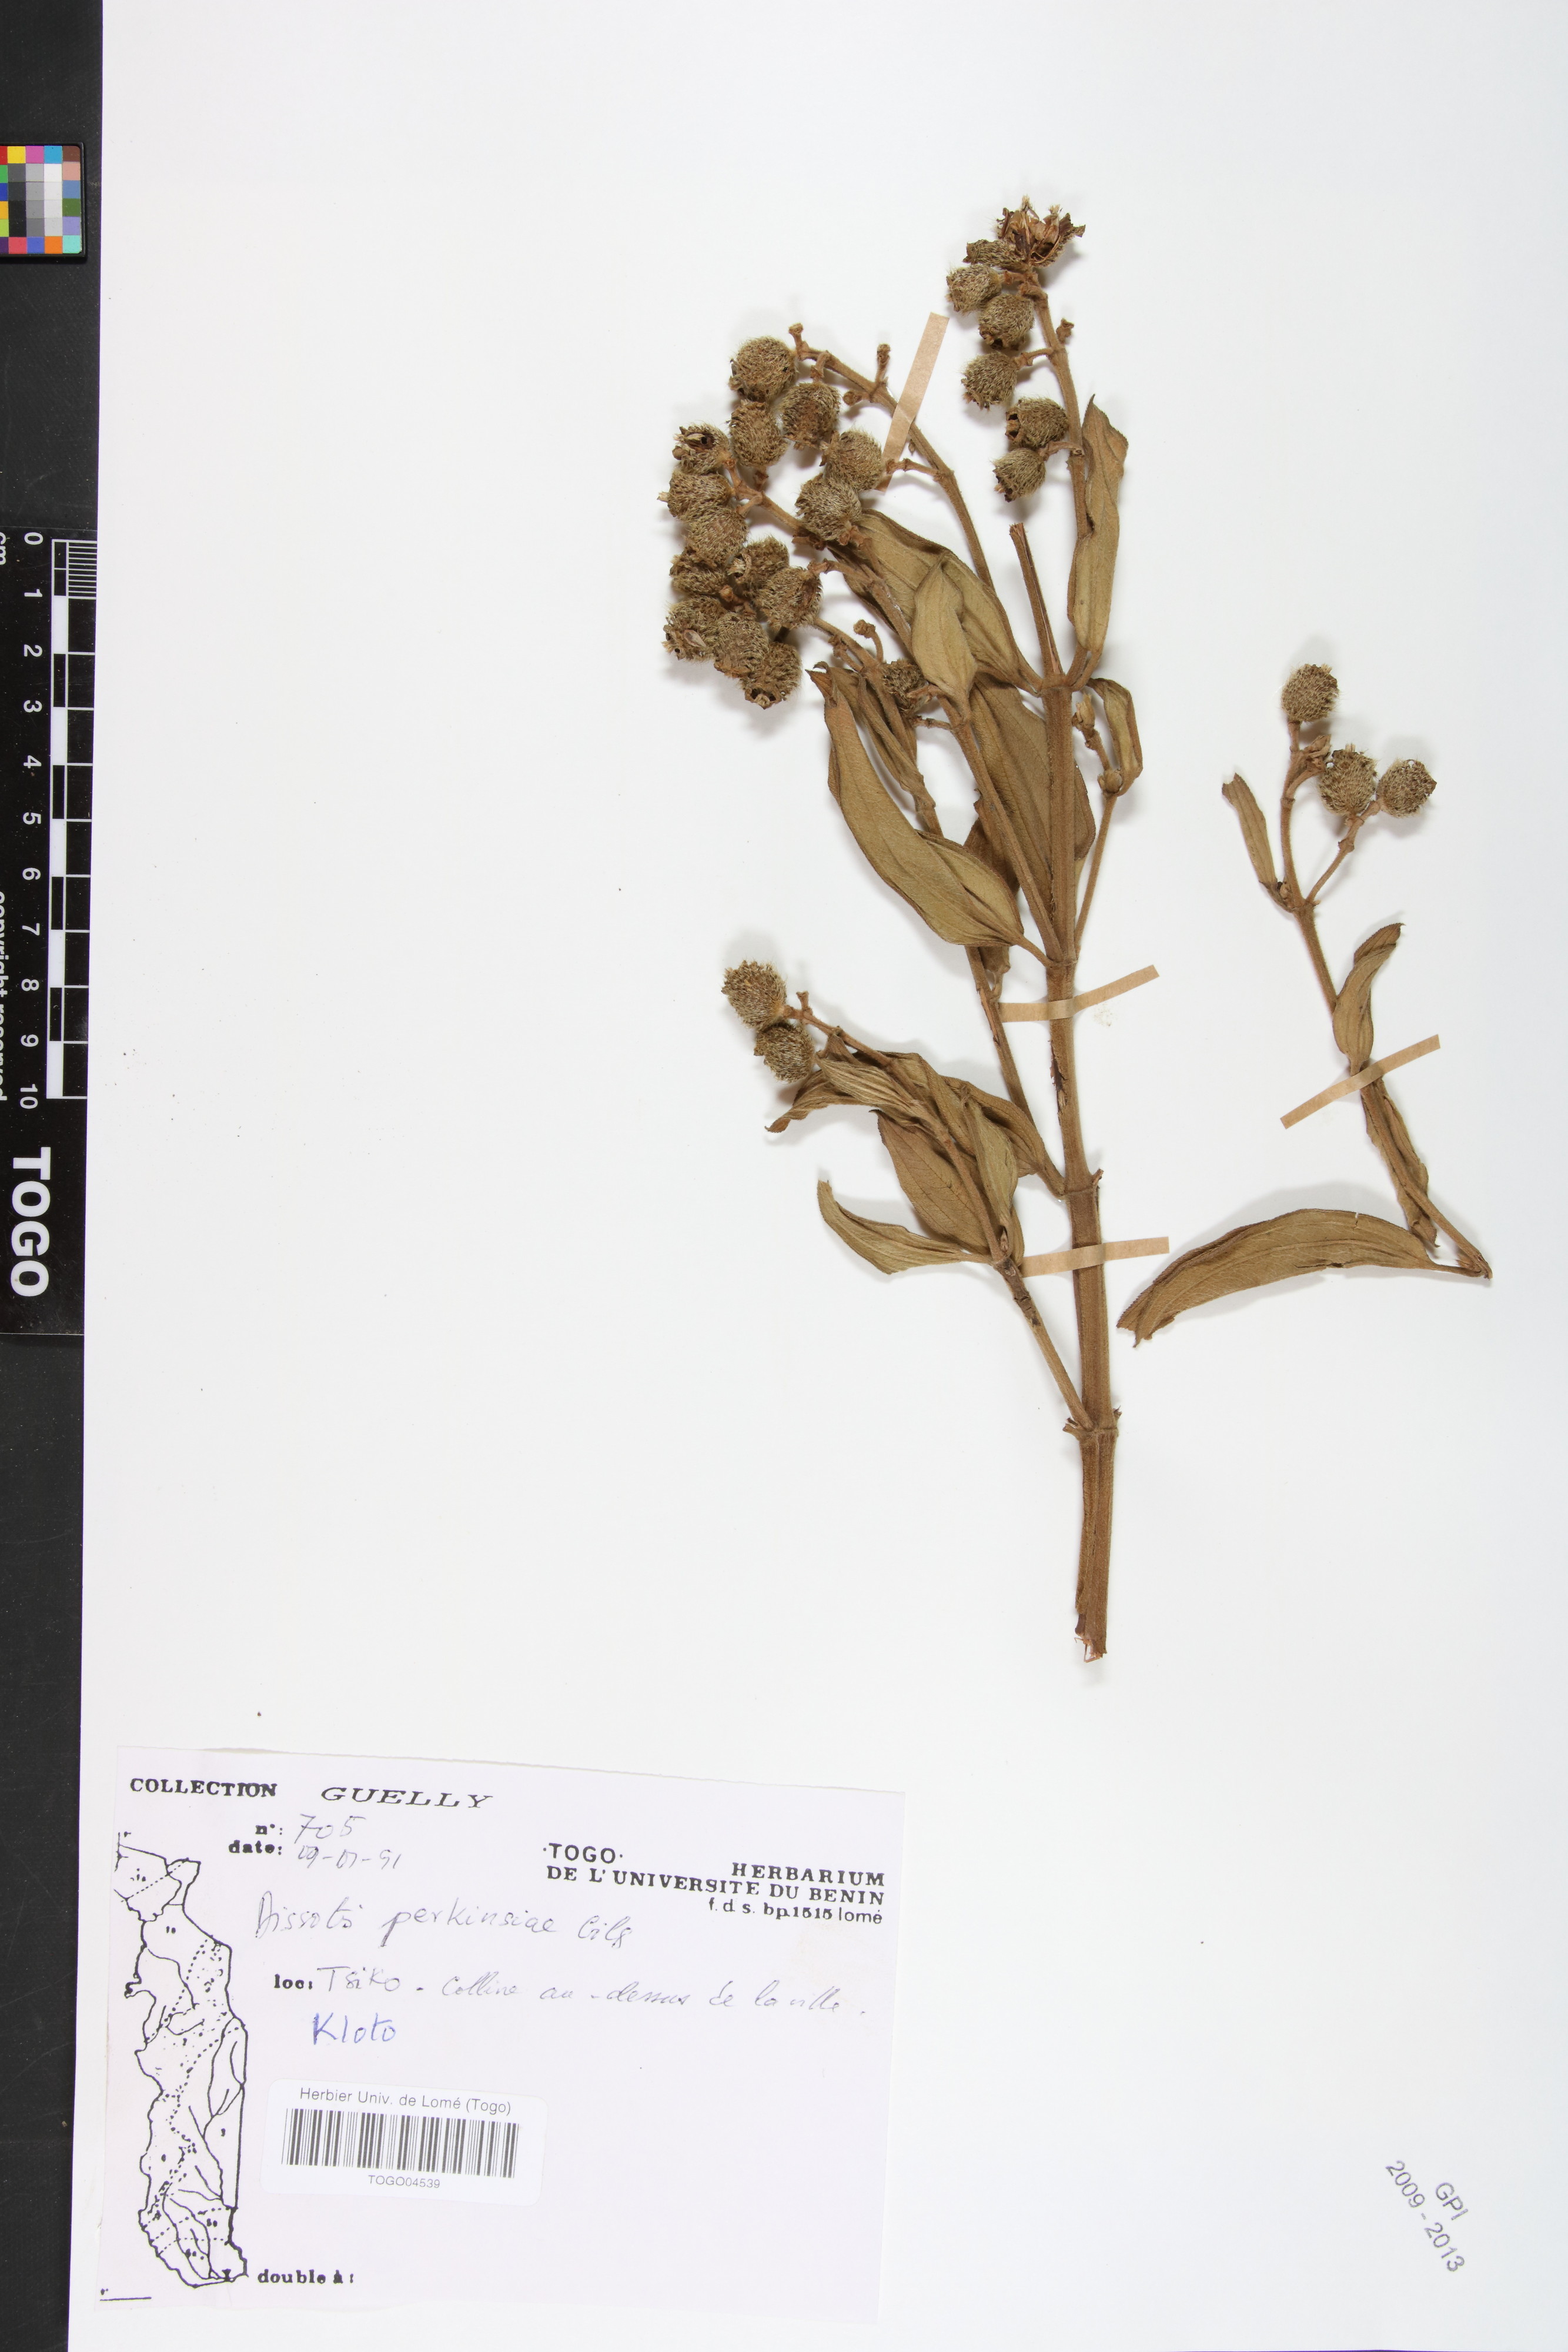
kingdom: Plantae
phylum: Tracheophyta
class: Magnoliopsida
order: Myrtales
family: Melastomataceae
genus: Feliciotis
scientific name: Feliciotis perkinsiae
